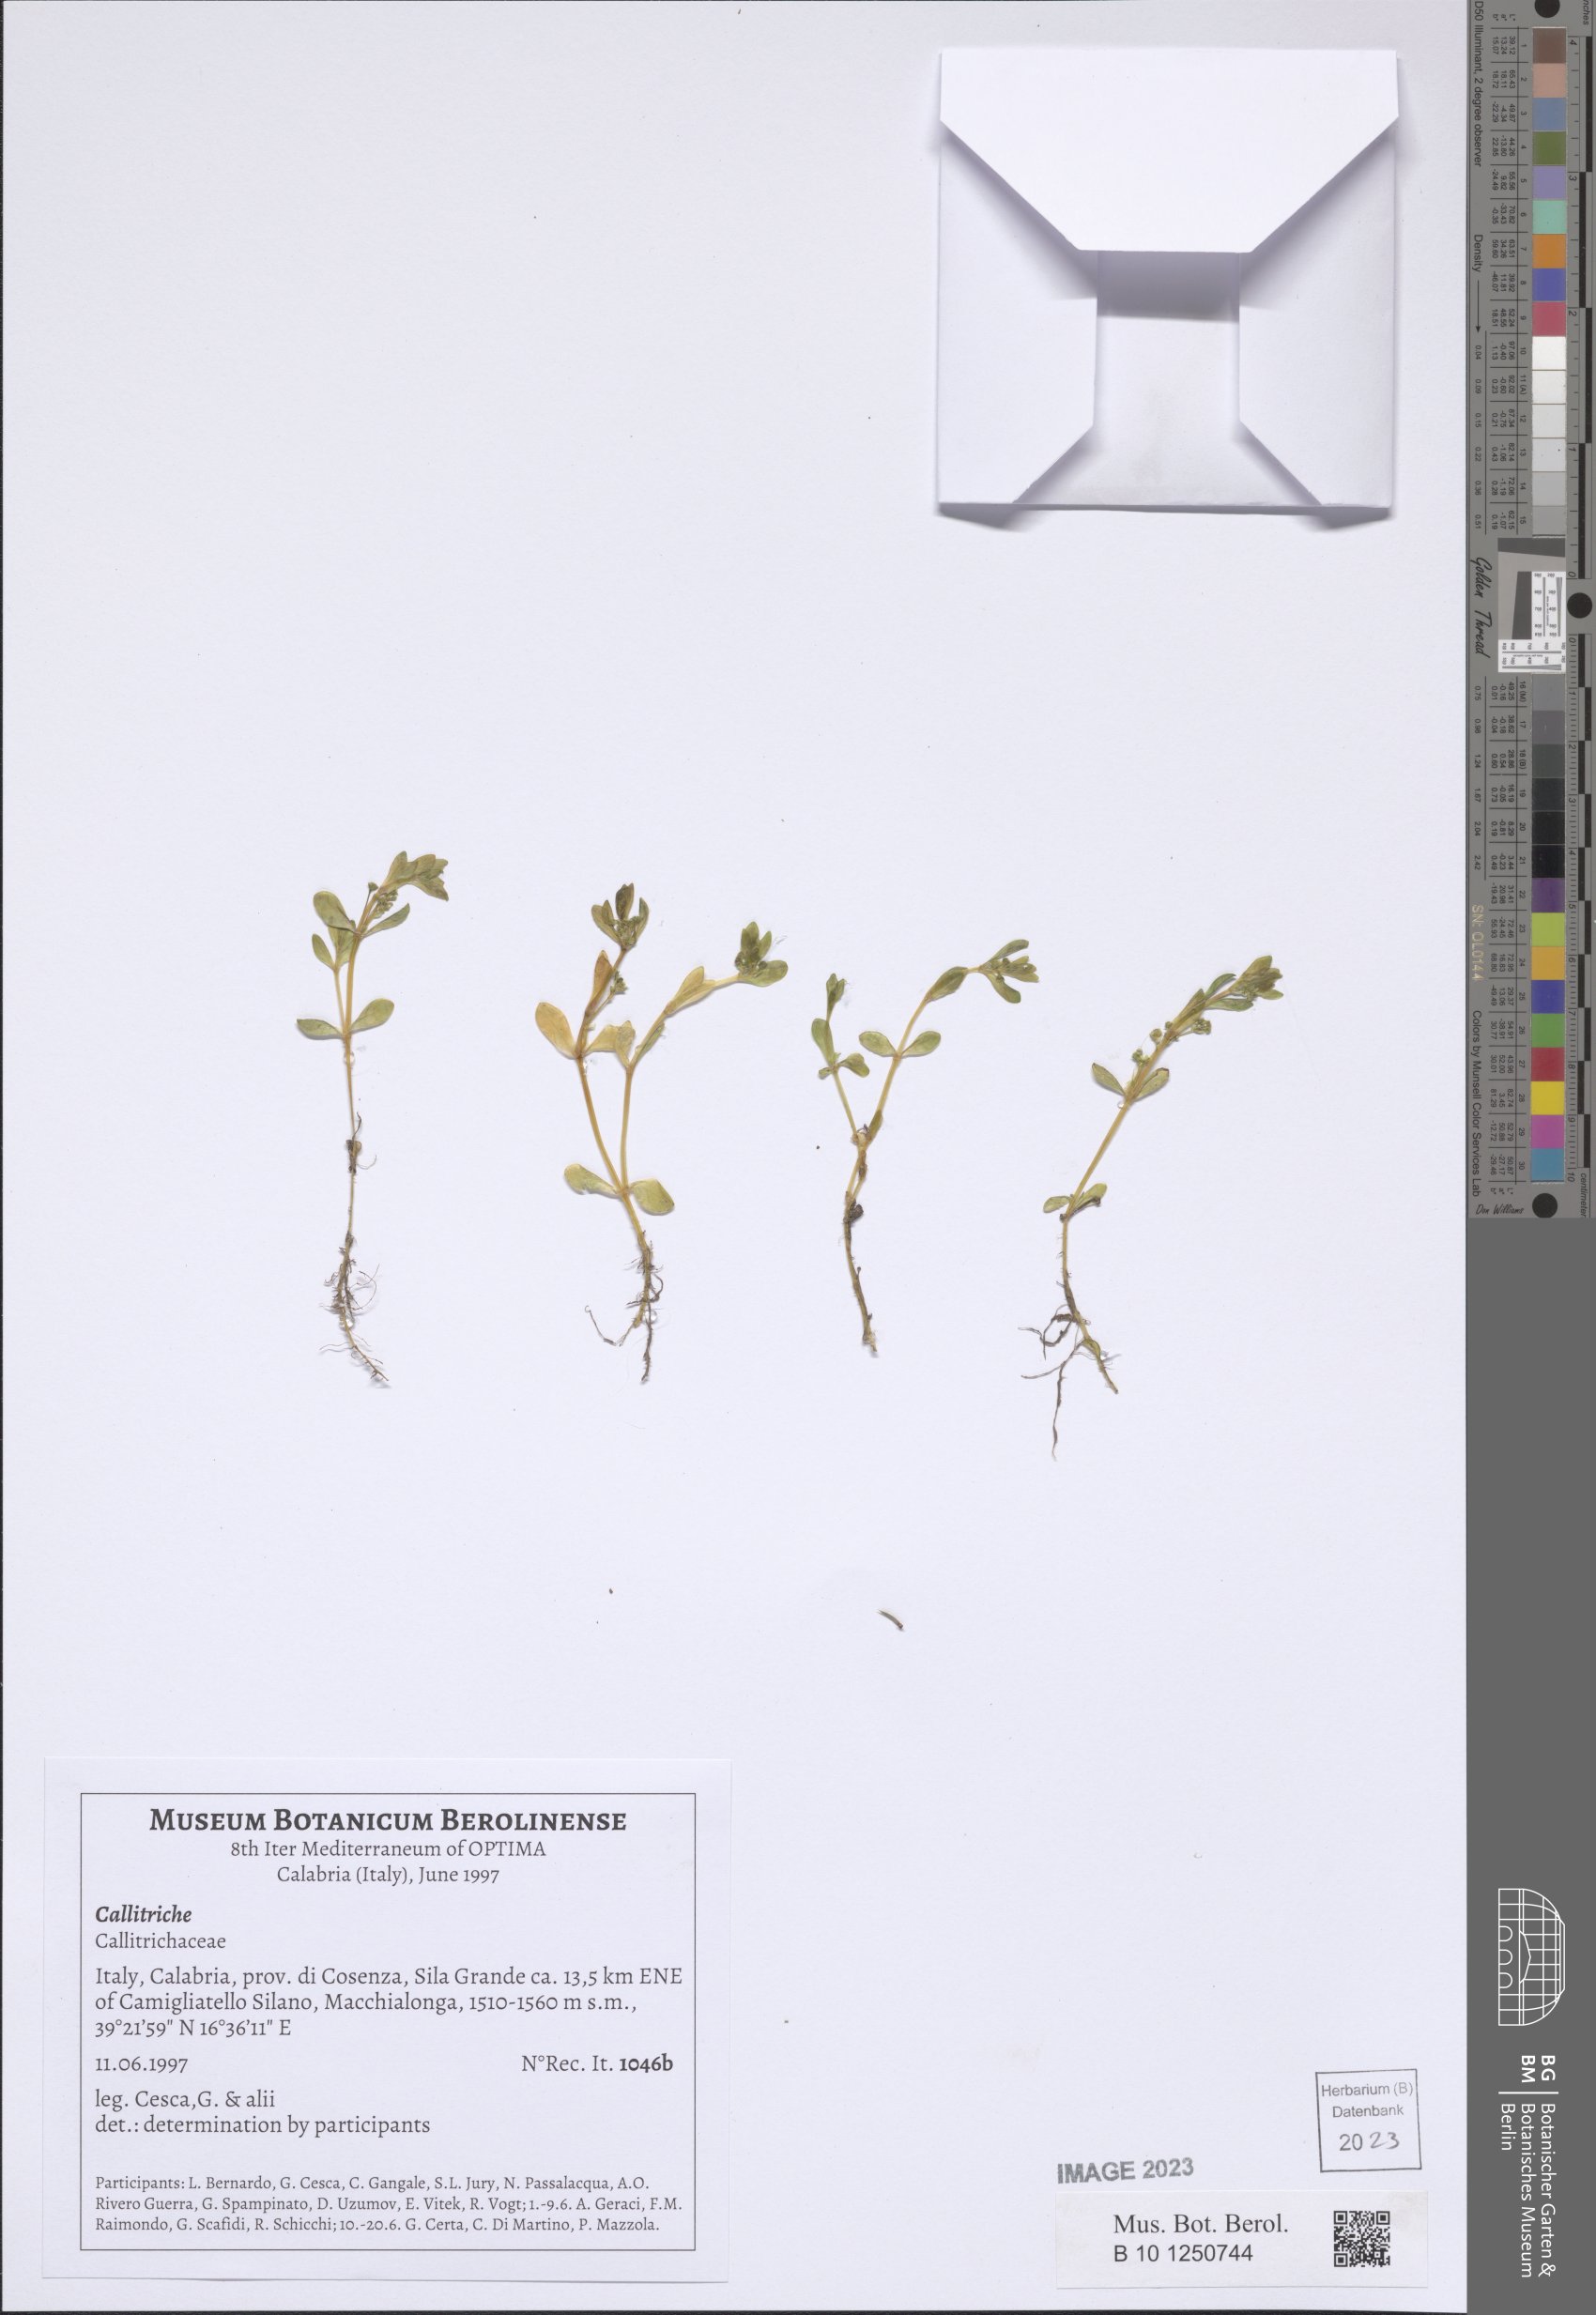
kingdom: Plantae
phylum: Tracheophyta
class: Magnoliopsida
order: Lamiales
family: Plantaginaceae
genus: Callitriche
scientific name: Callitriche
